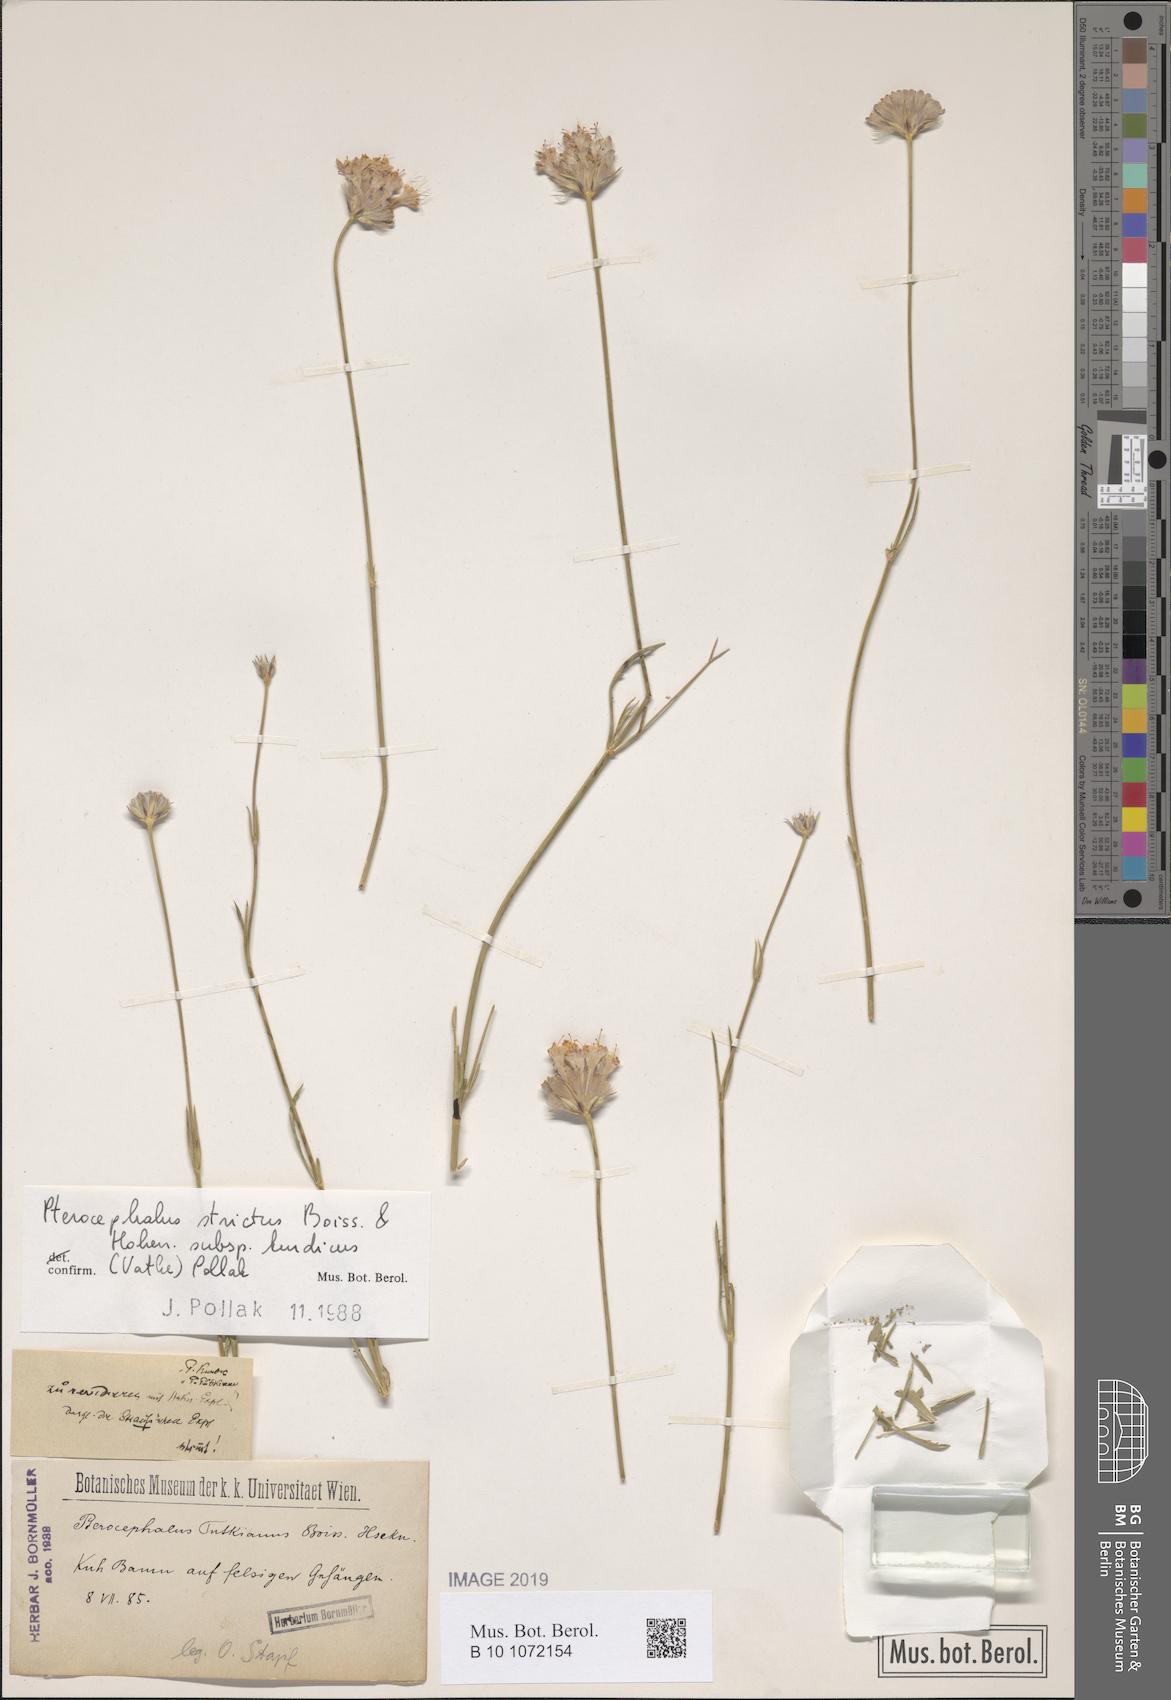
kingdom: Plantae
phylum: Tracheophyta
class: Magnoliopsida
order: Dipsacales
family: Caprifoliaceae
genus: Pterocephalus
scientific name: Pterocephalus strictus
